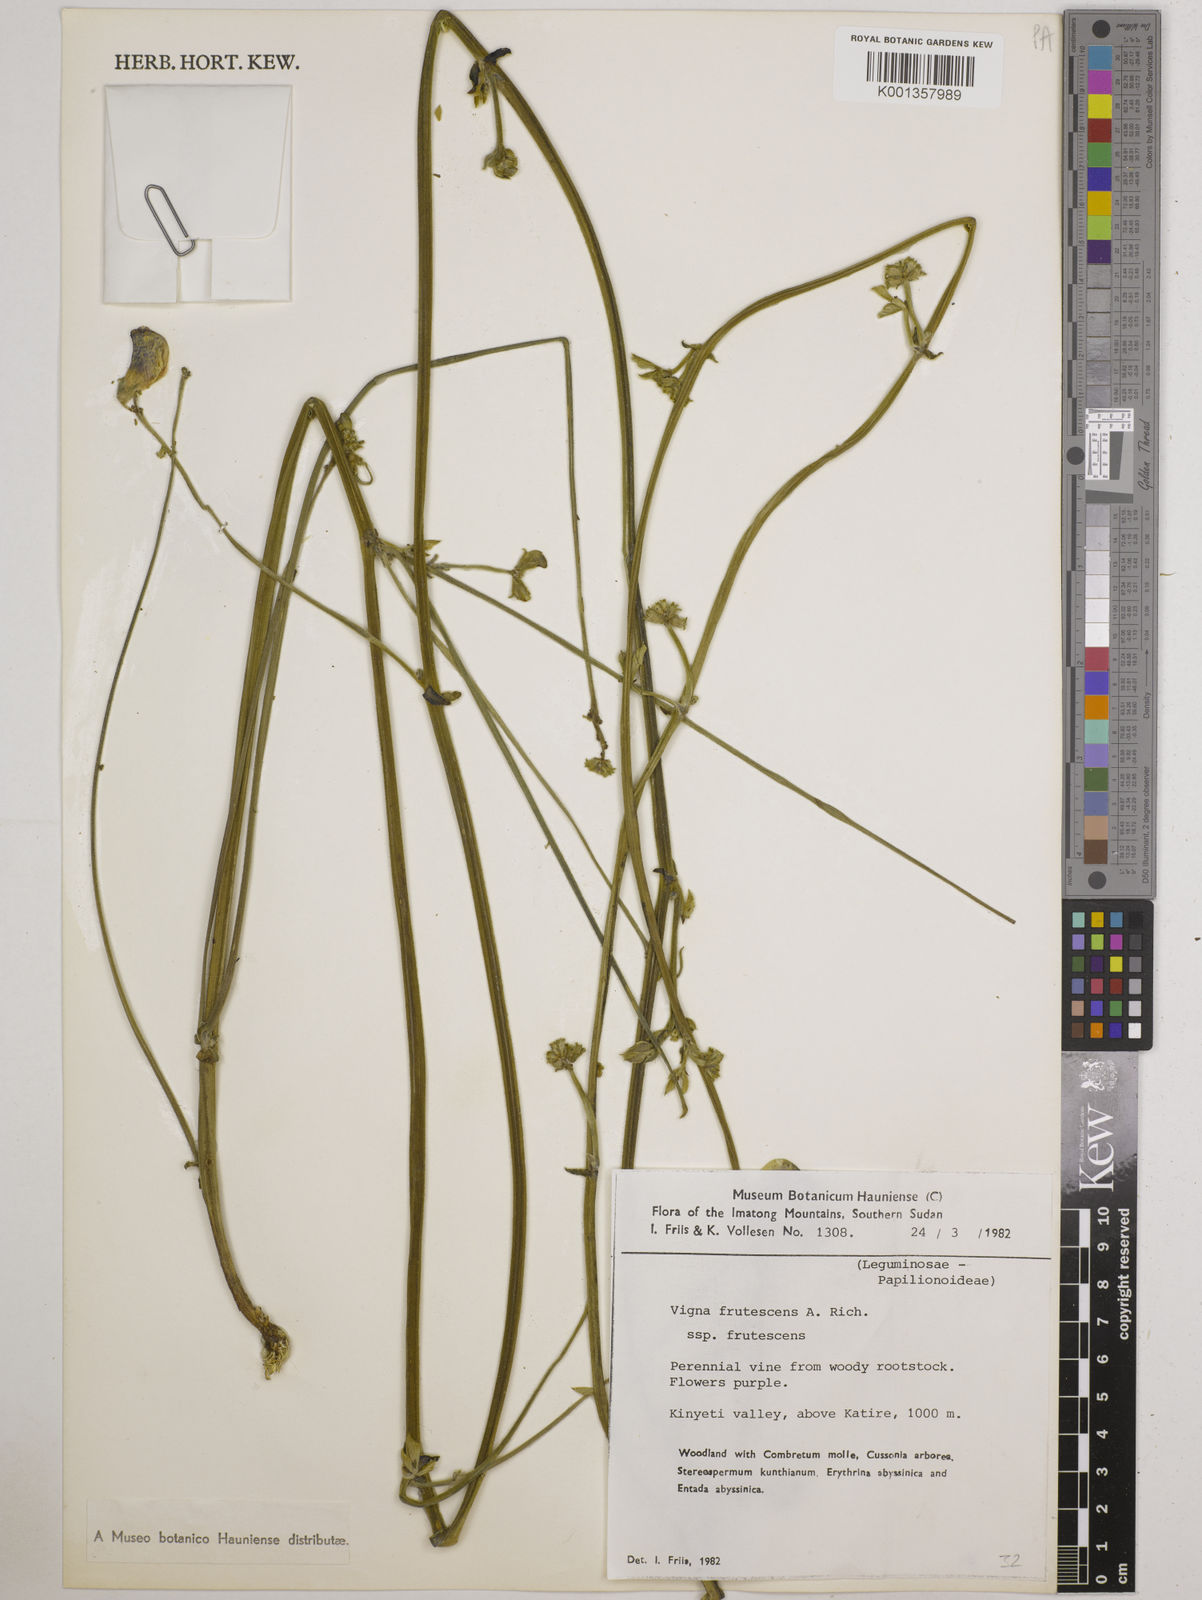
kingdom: Plantae
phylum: Tracheophyta
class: Magnoliopsida
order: Fabales
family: Fabaceae
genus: Vigna
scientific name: Vigna frutescens
